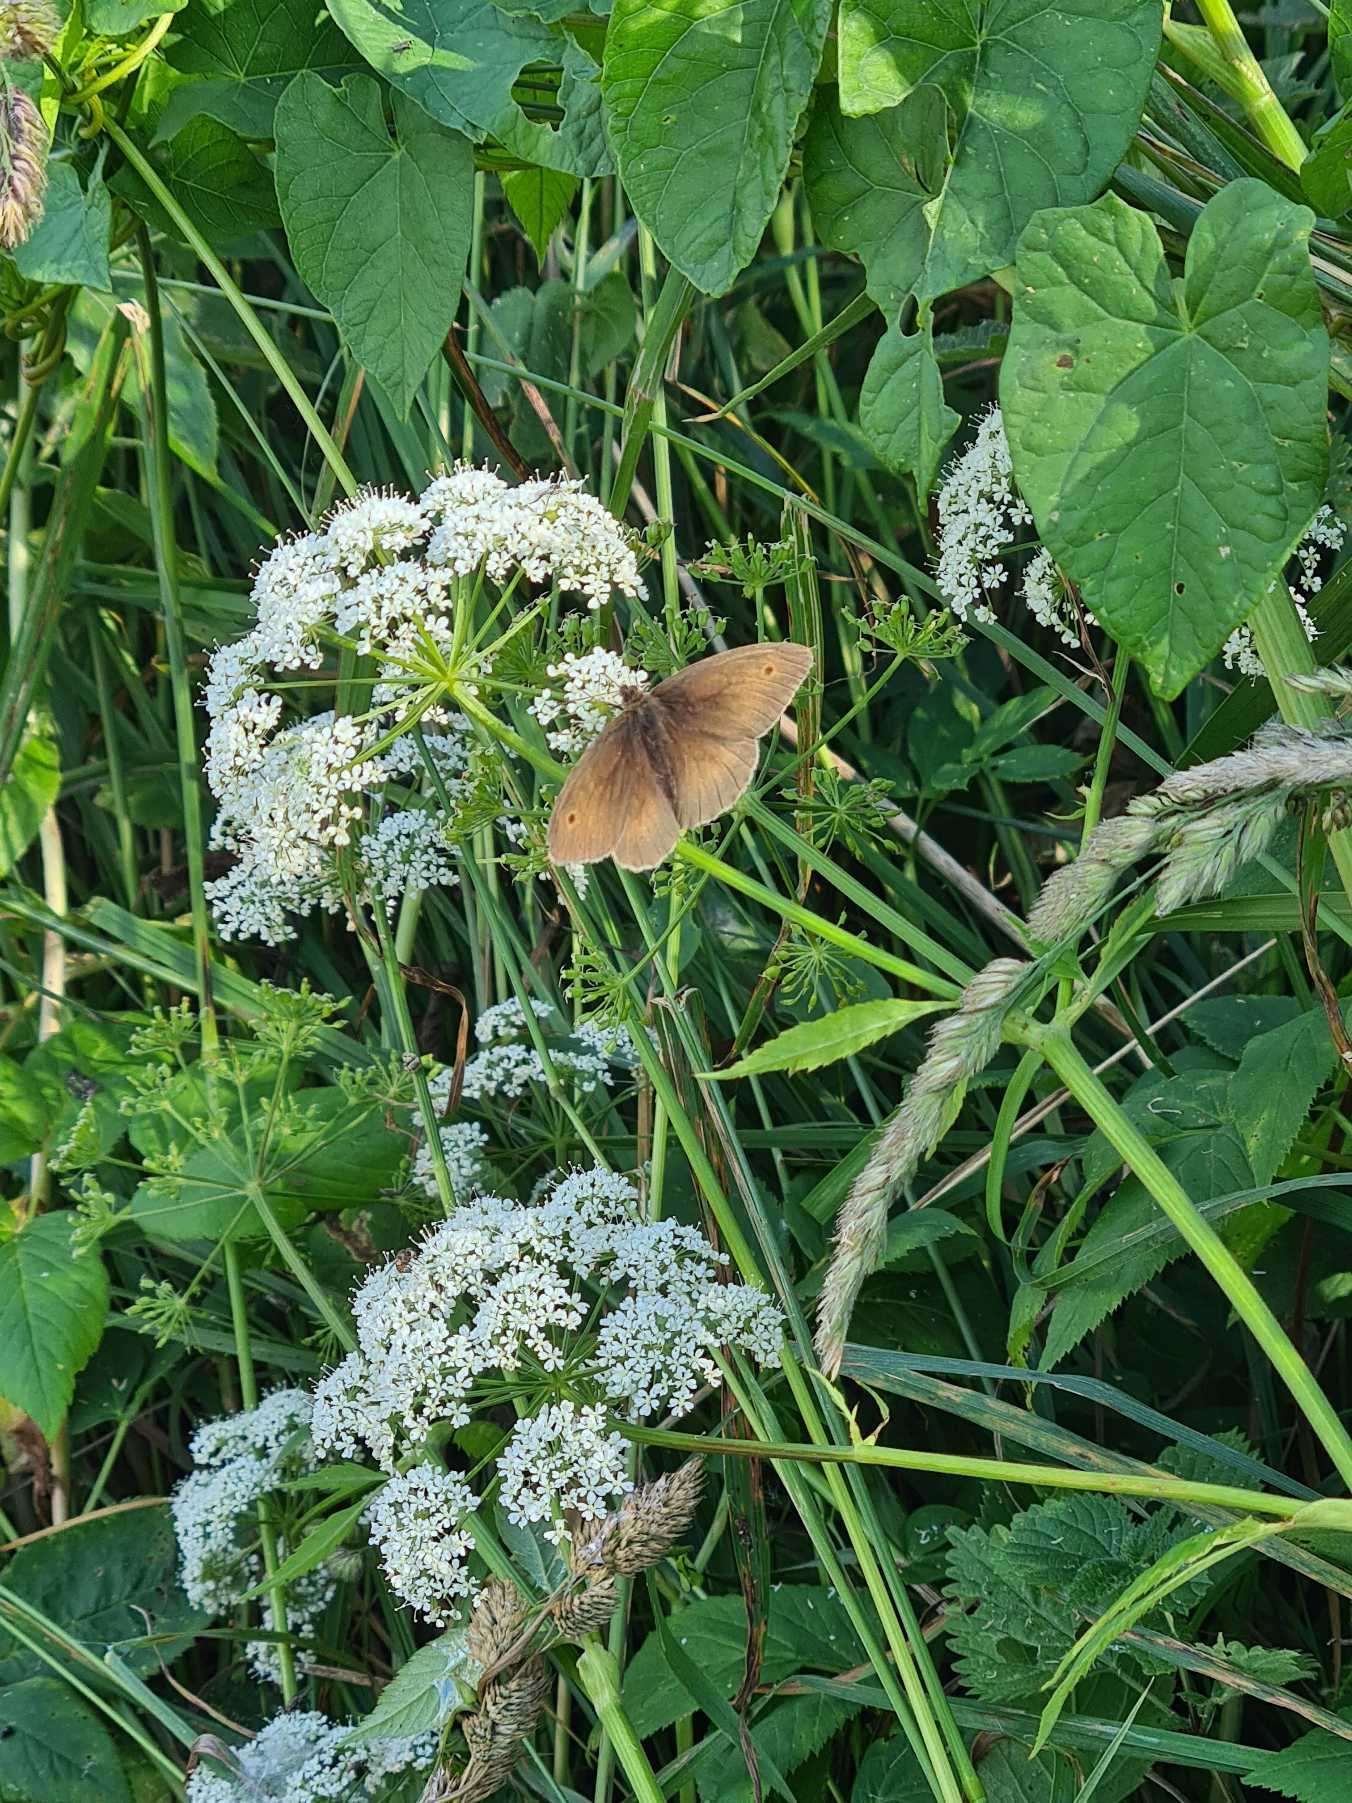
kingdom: Animalia
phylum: Arthropoda
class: Insecta
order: Lepidoptera
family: Nymphalidae
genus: Maniola
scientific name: Maniola jurtina
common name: Græsrandøje
